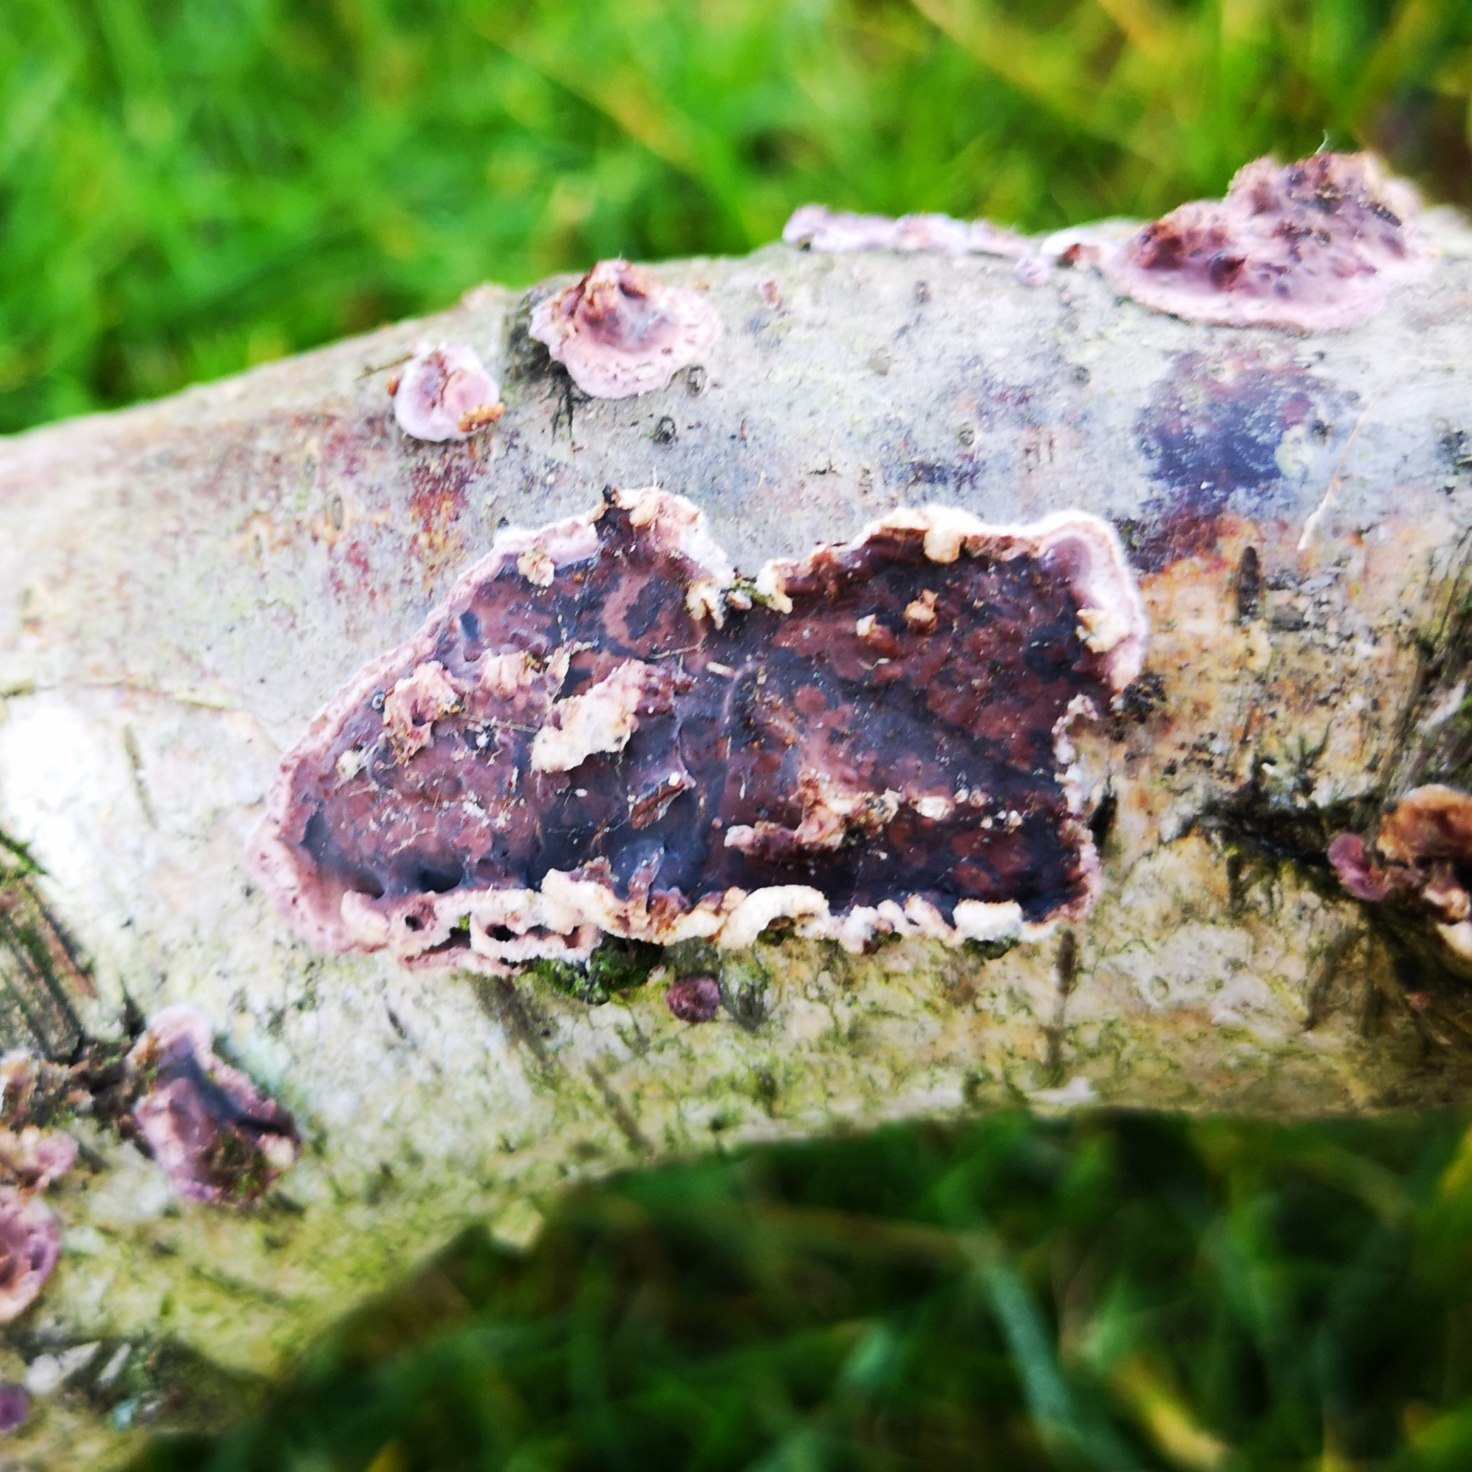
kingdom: Fungi
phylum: Basidiomycota
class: Agaricomycetes
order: Agaricales
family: Cyphellaceae
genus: Chondrostereum
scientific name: Chondrostereum purpureum
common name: Purpurlædersvamp
